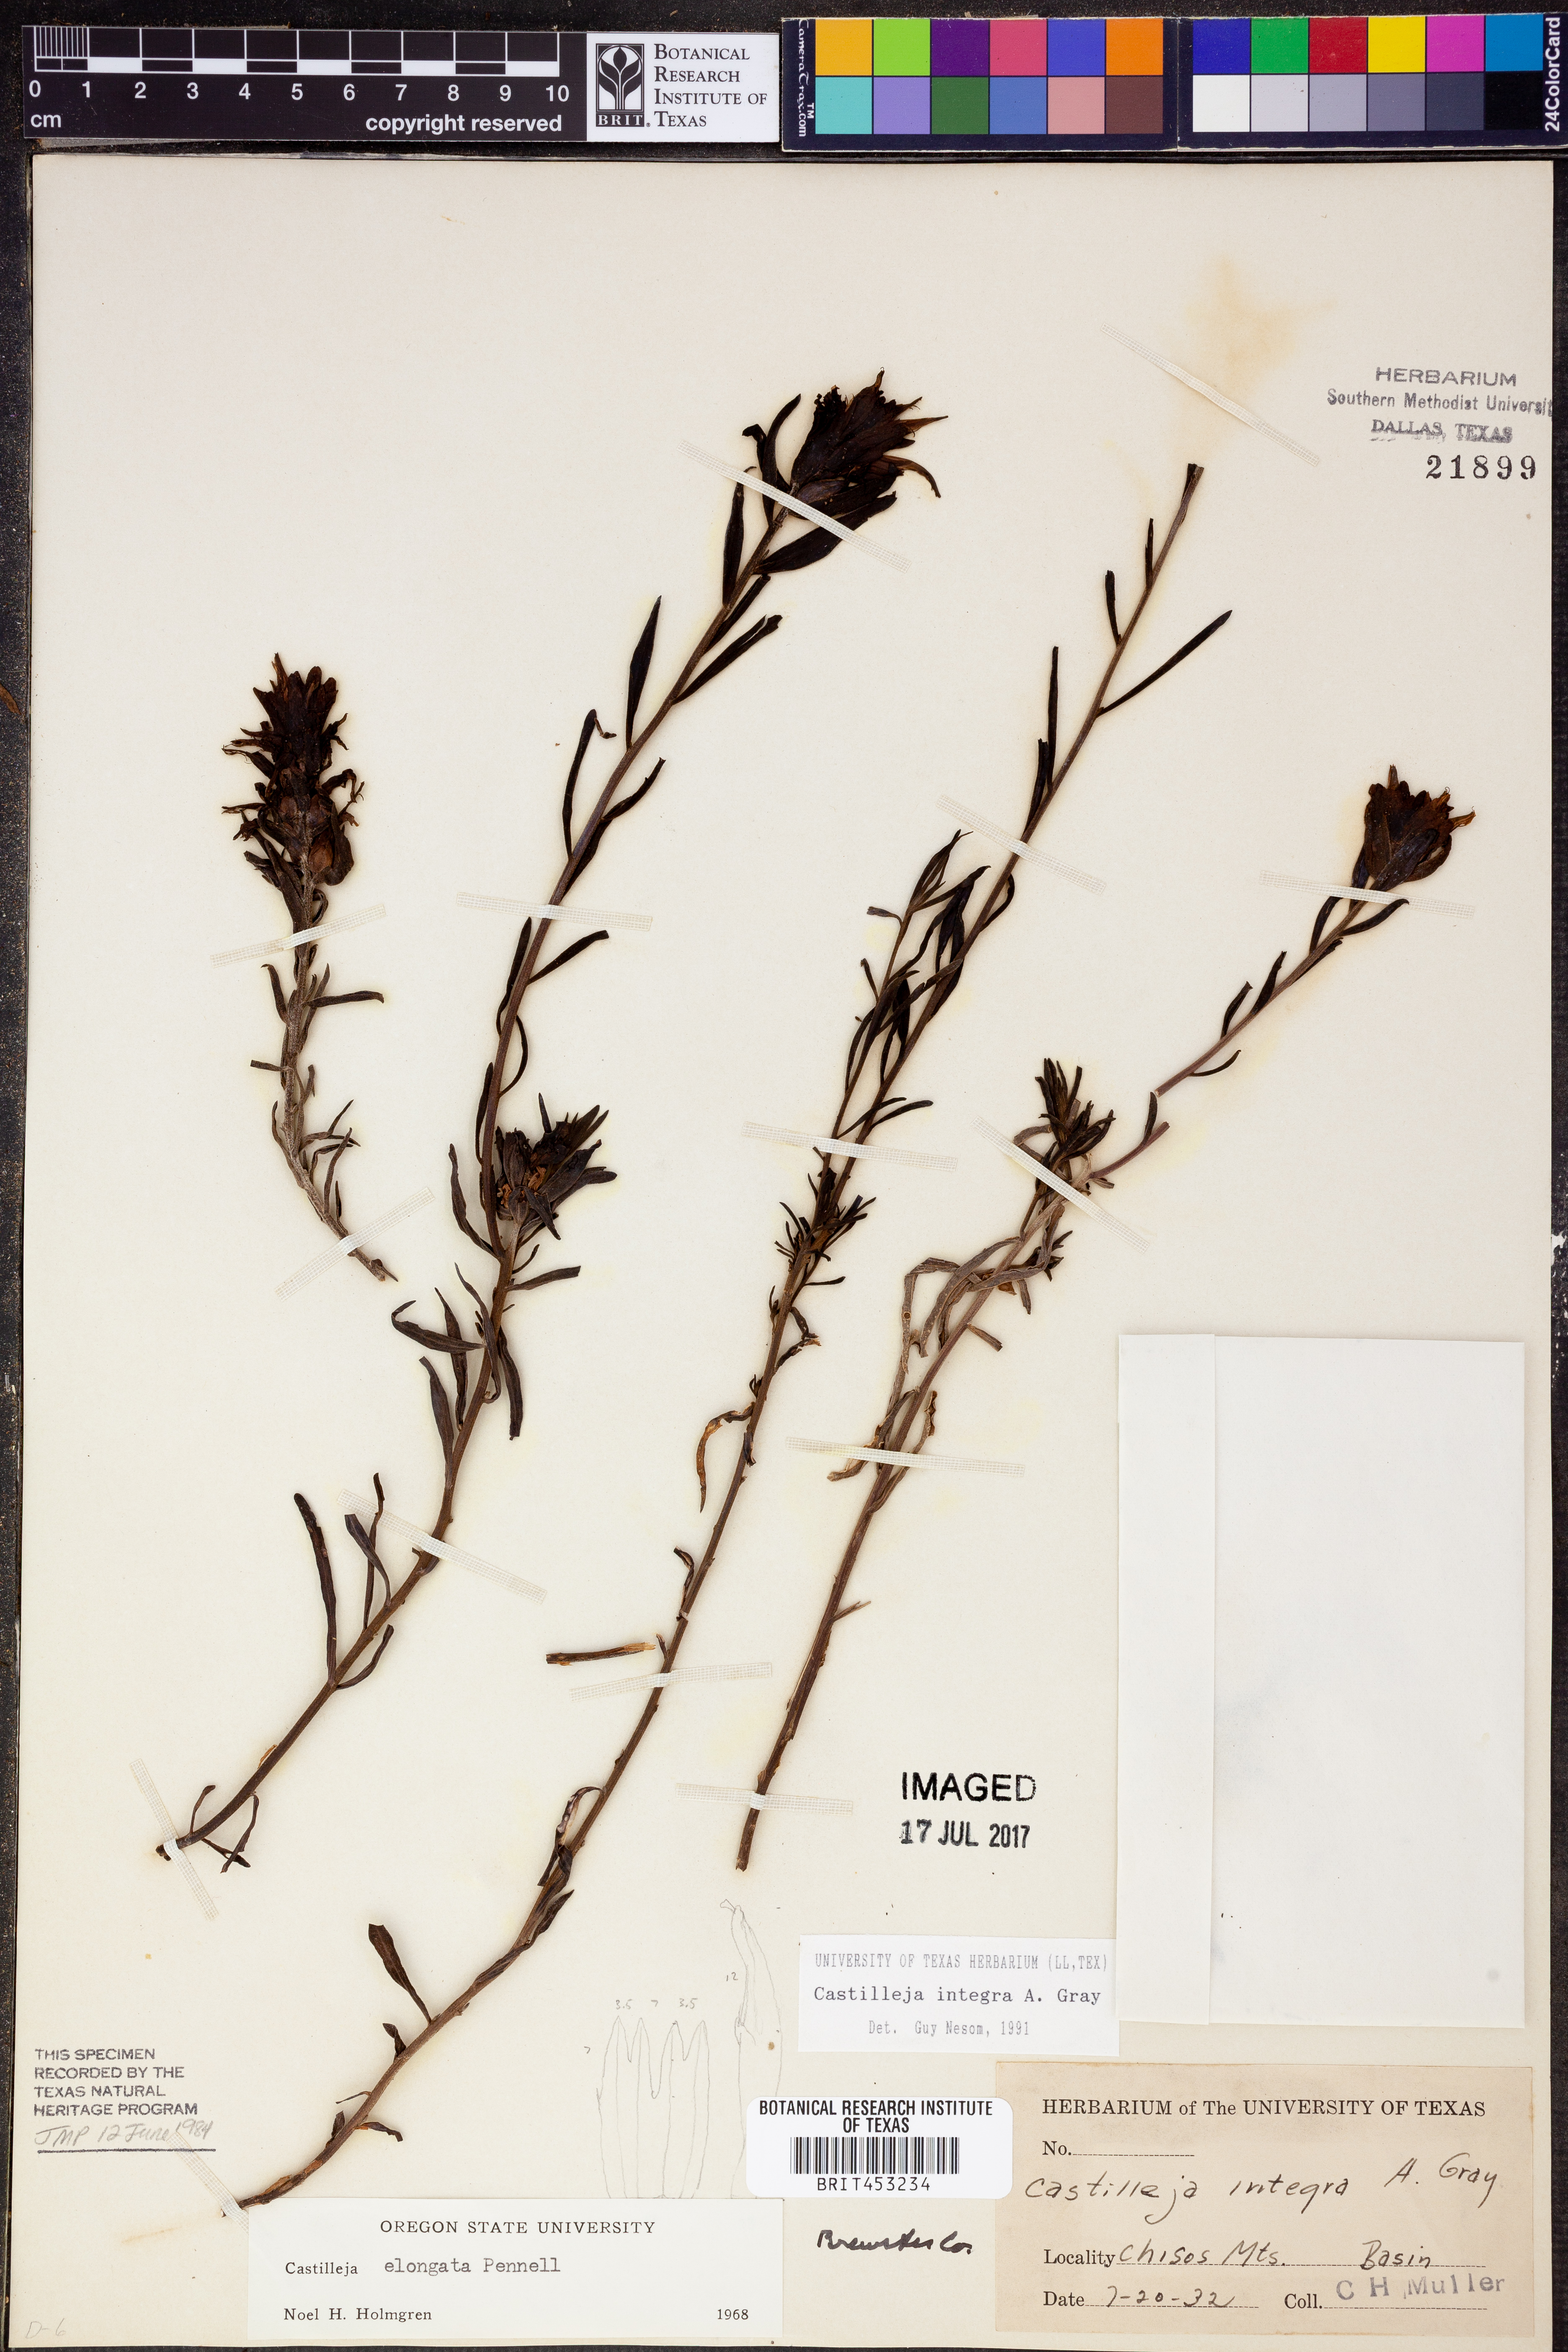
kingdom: Plantae
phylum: Tracheophyta
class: Magnoliopsida
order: Lamiales
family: Orobanchaceae
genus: Castilleja
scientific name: Castilleja integra
